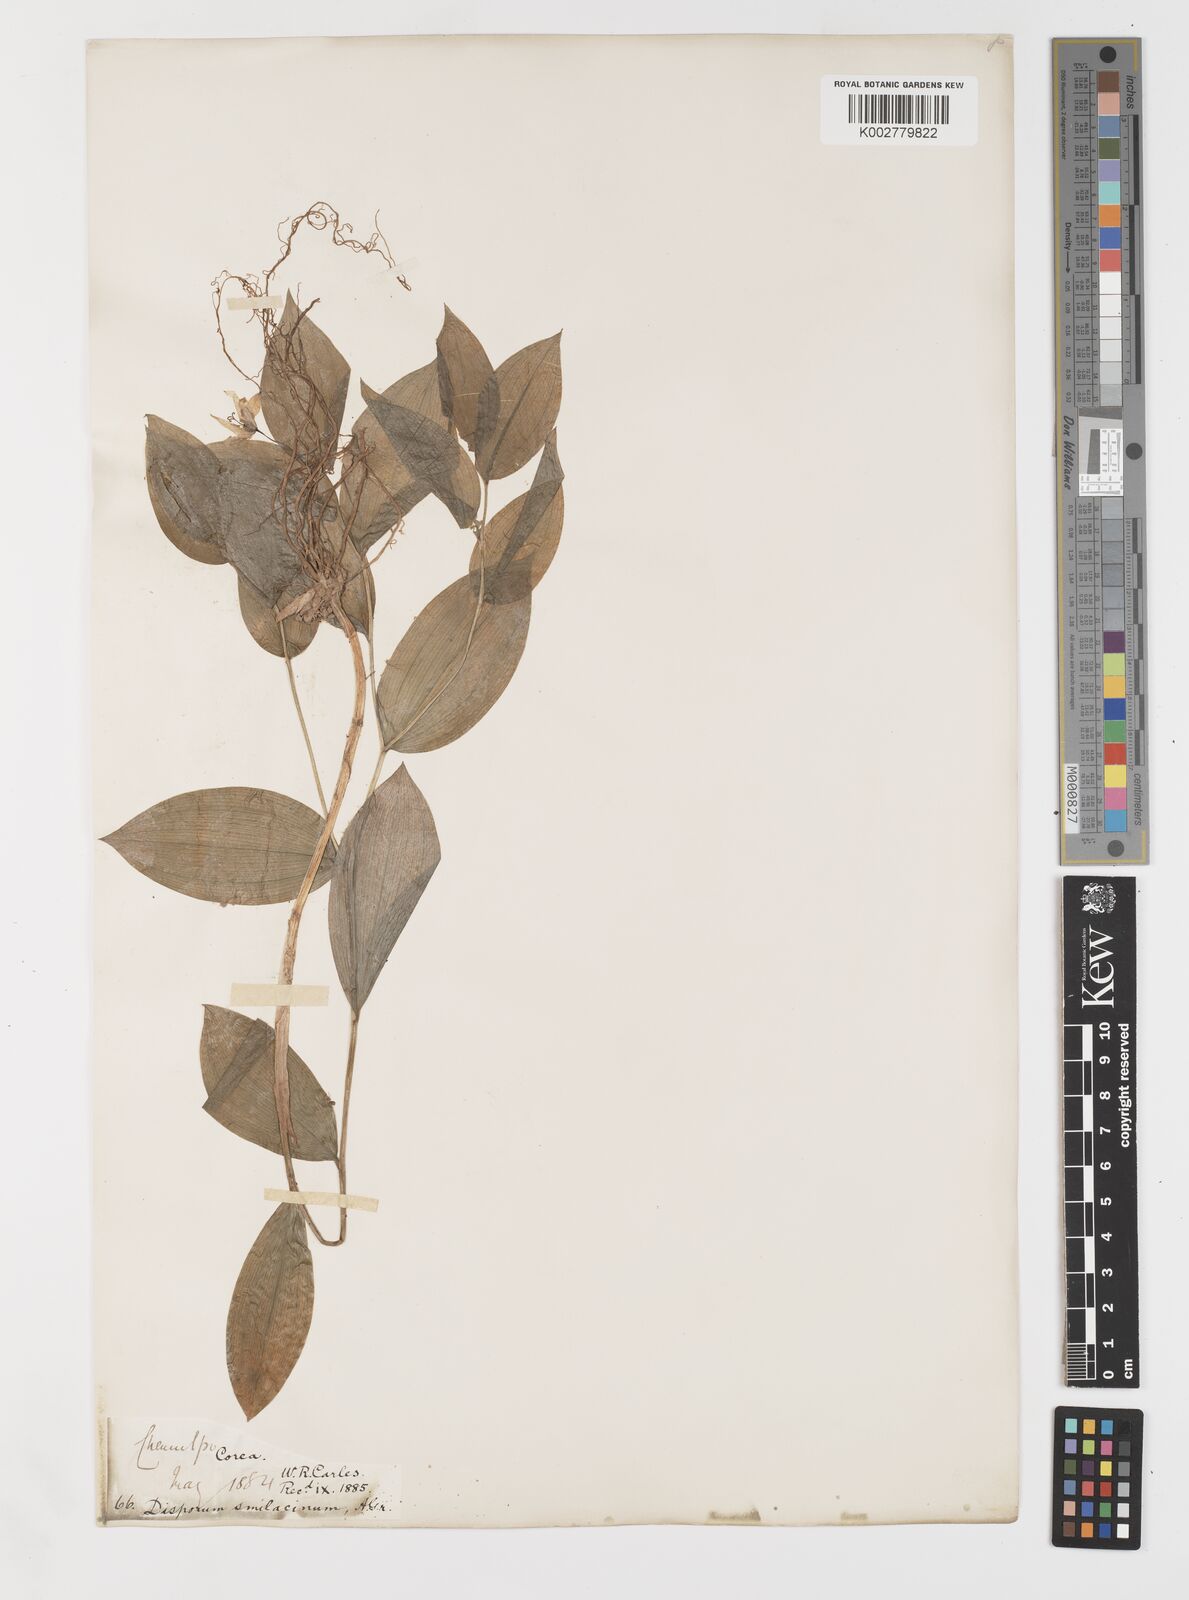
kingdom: Plantae
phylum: Tracheophyta
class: Liliopsida
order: Liliales
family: Colchicaceae
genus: Disporum
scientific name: Disporum smilacinum
